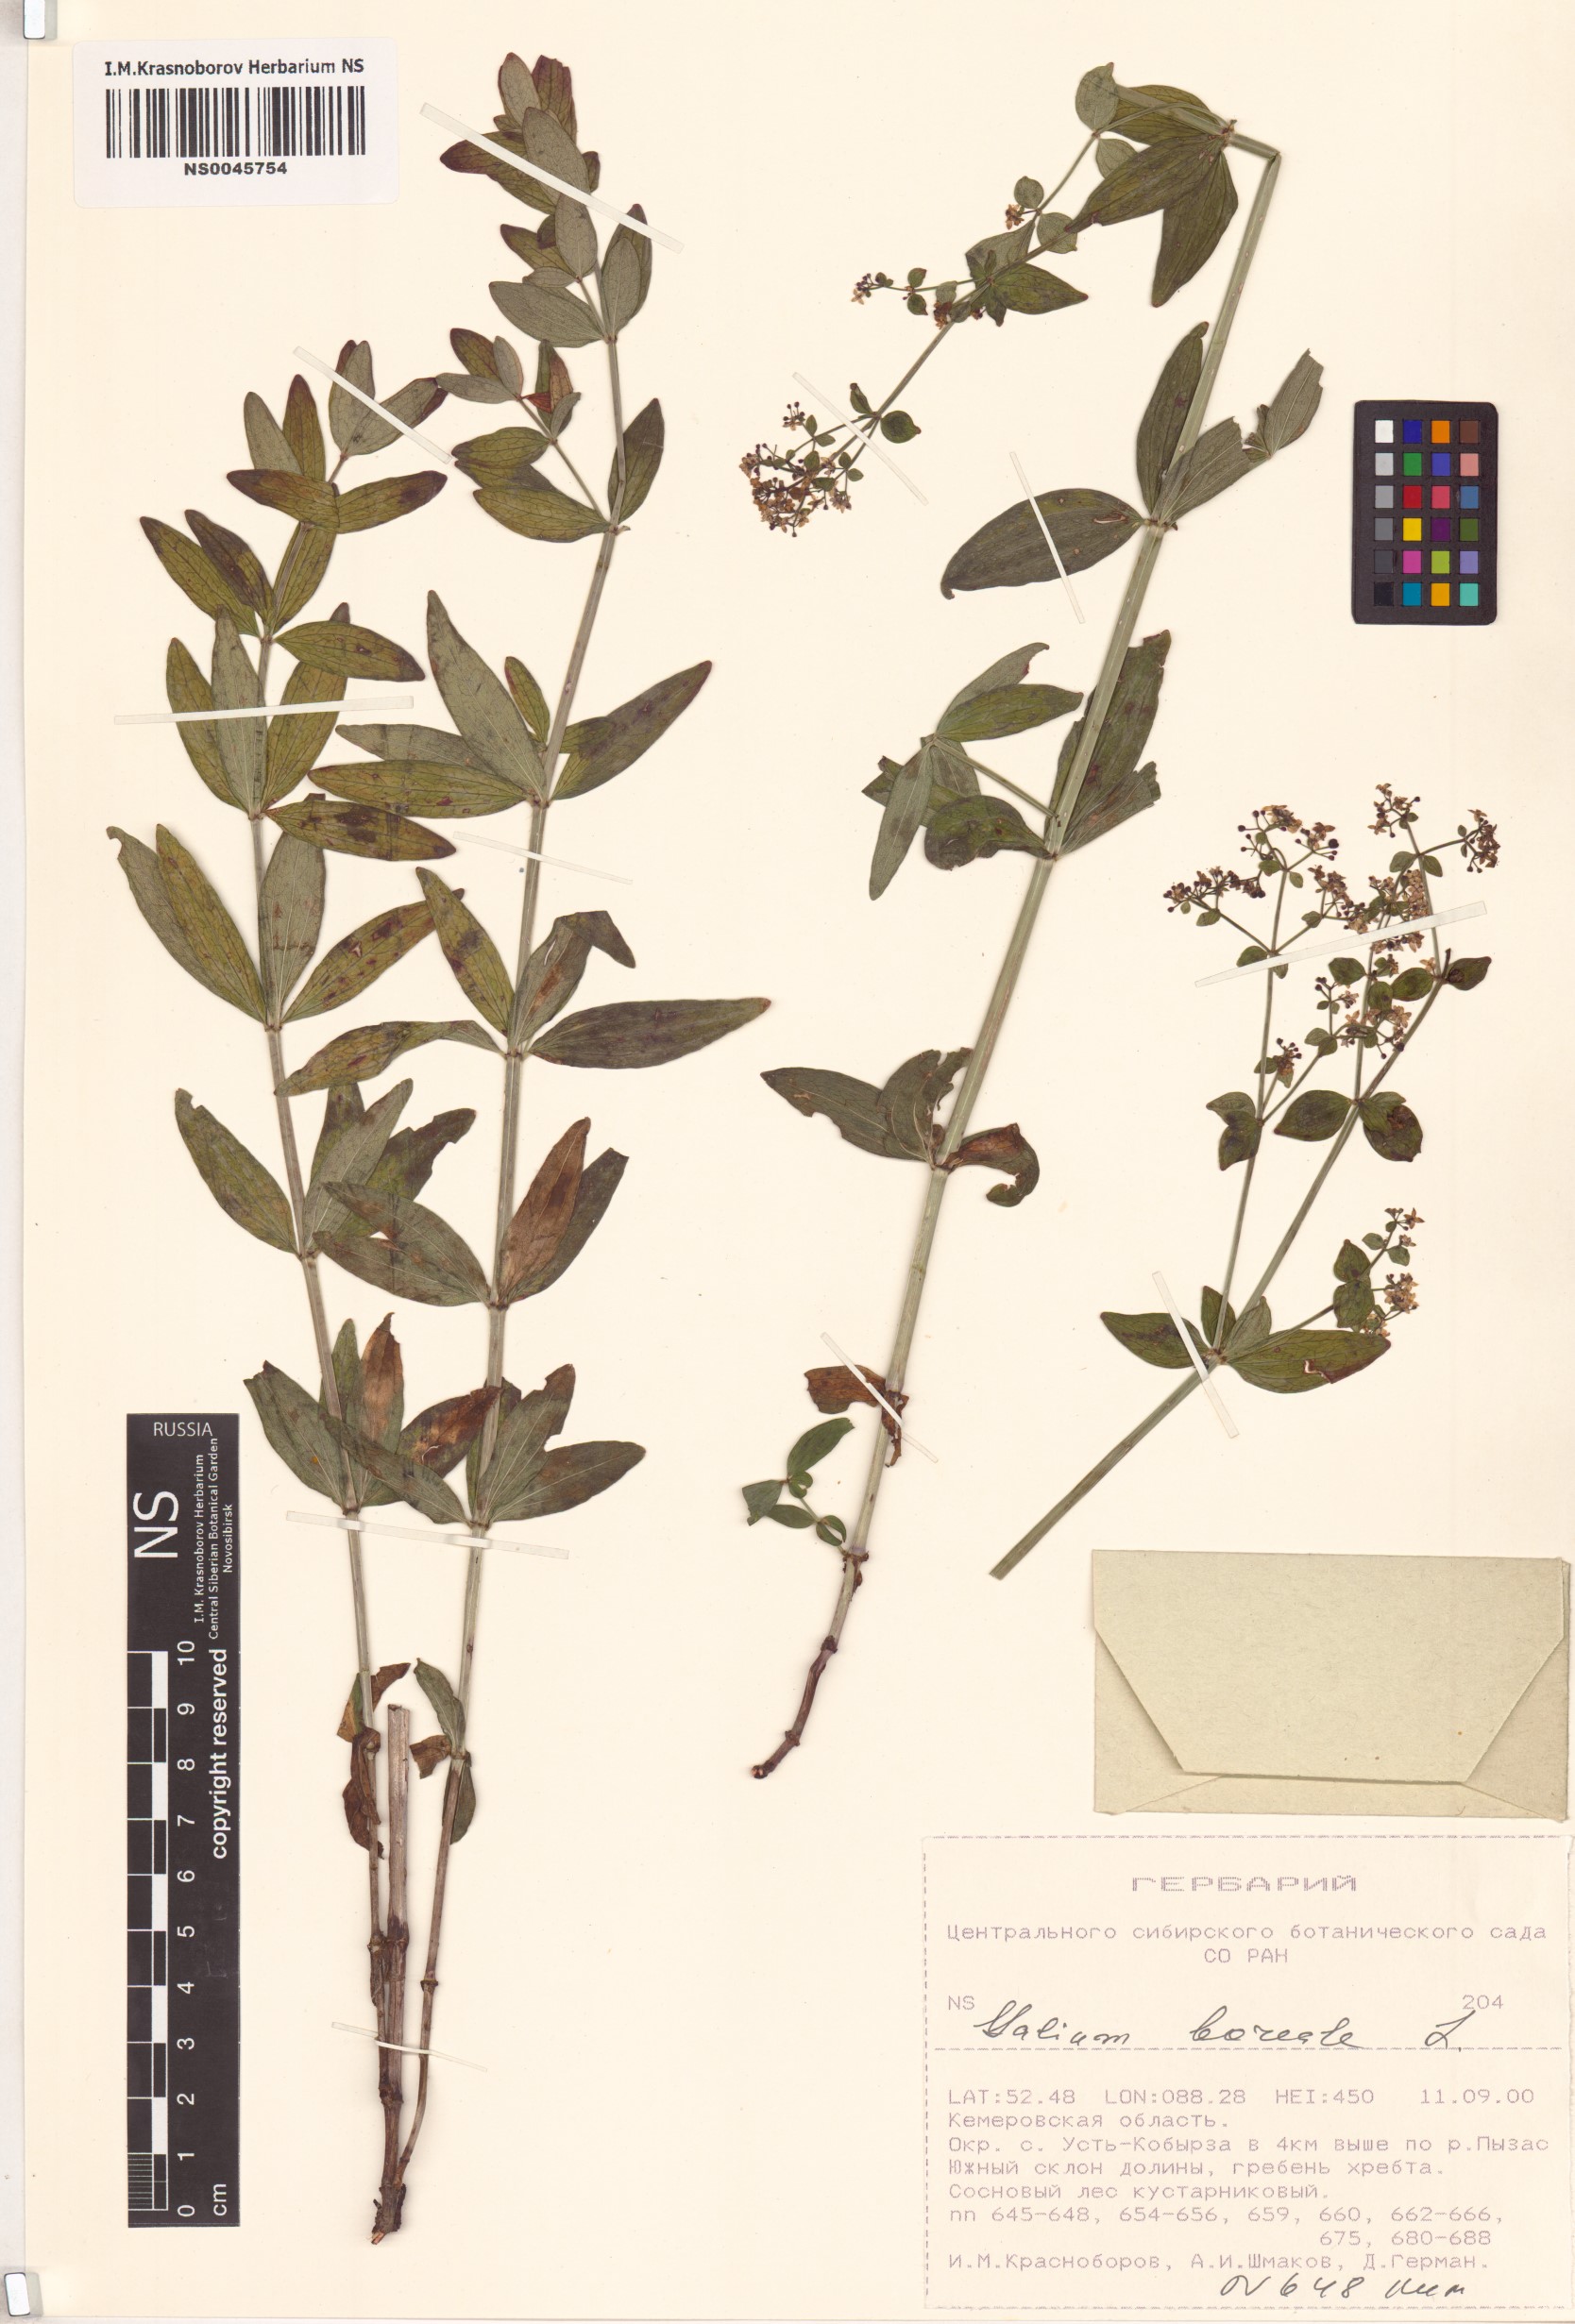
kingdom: Plantae
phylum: Tracheophyta
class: Magnoliopsida
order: Gentianales
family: Rubiaceae
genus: Galium
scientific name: Galium boreale
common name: Northern bedstraw
